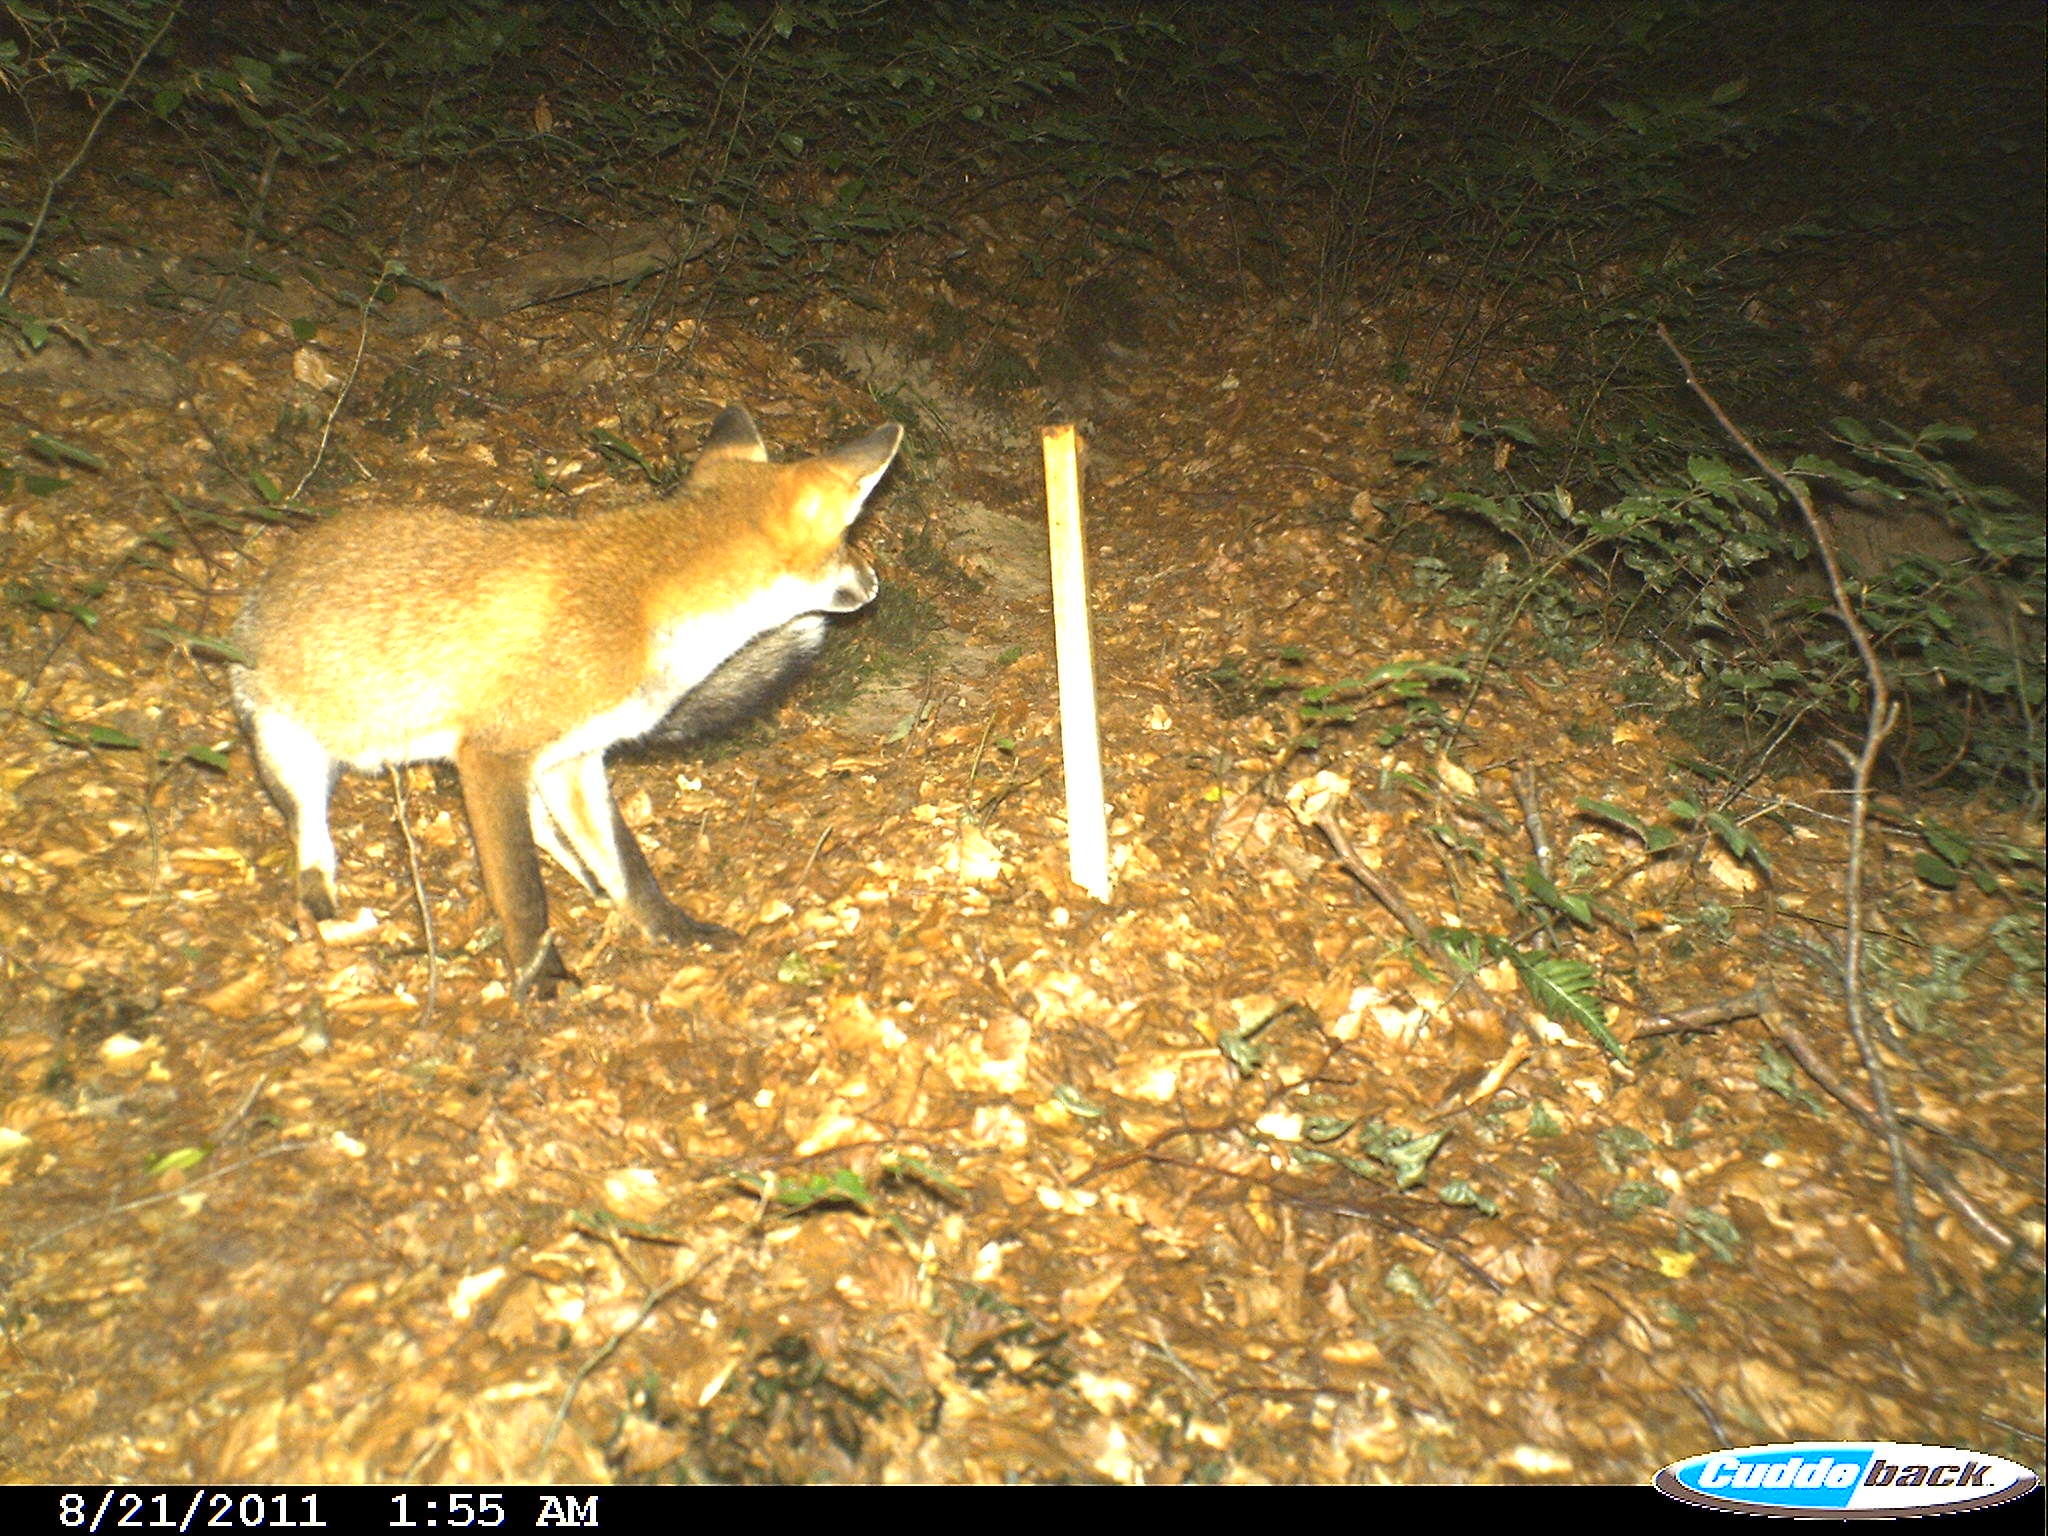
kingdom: Animalia
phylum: Chordata
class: Mammalia
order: Carnivora
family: Canidae
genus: Vulpes
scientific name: Vulpes vulpes
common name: Red fox
